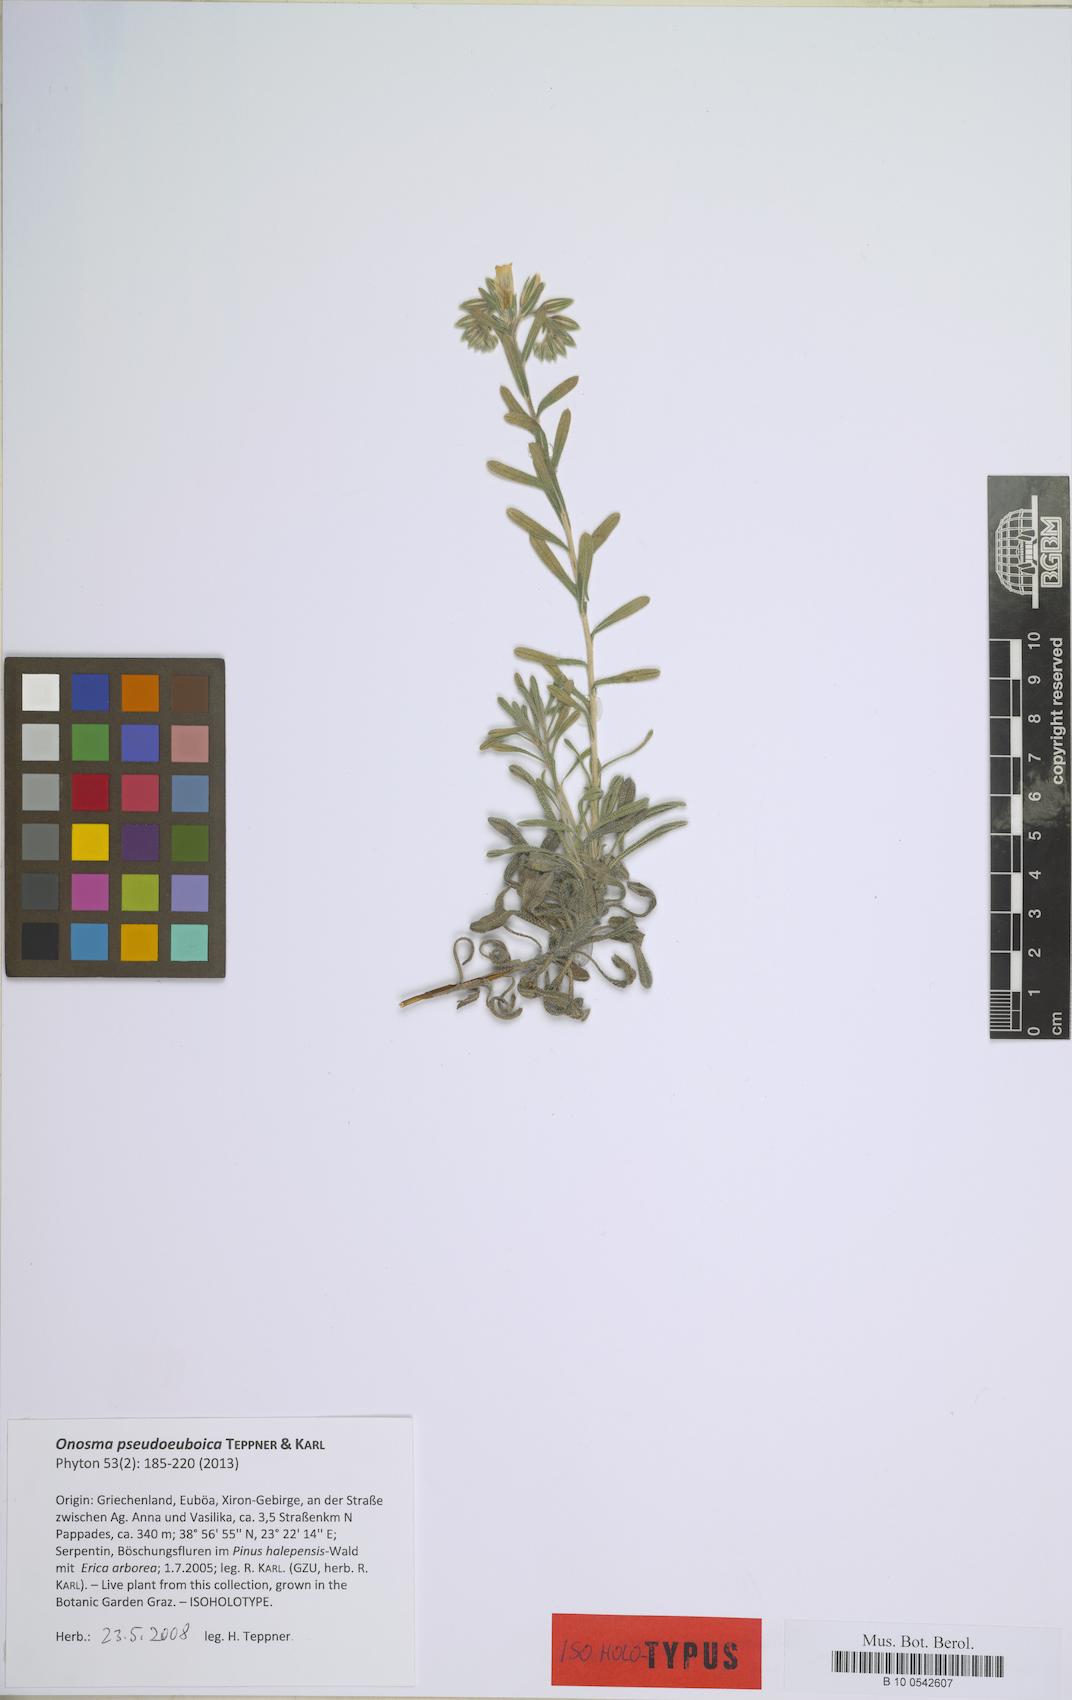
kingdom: Plantae
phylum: Tracheophyta
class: Magnoliopsida
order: Boraginales
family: Boraginaceae
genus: Onosma
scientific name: Onosma pseudoeuboica
